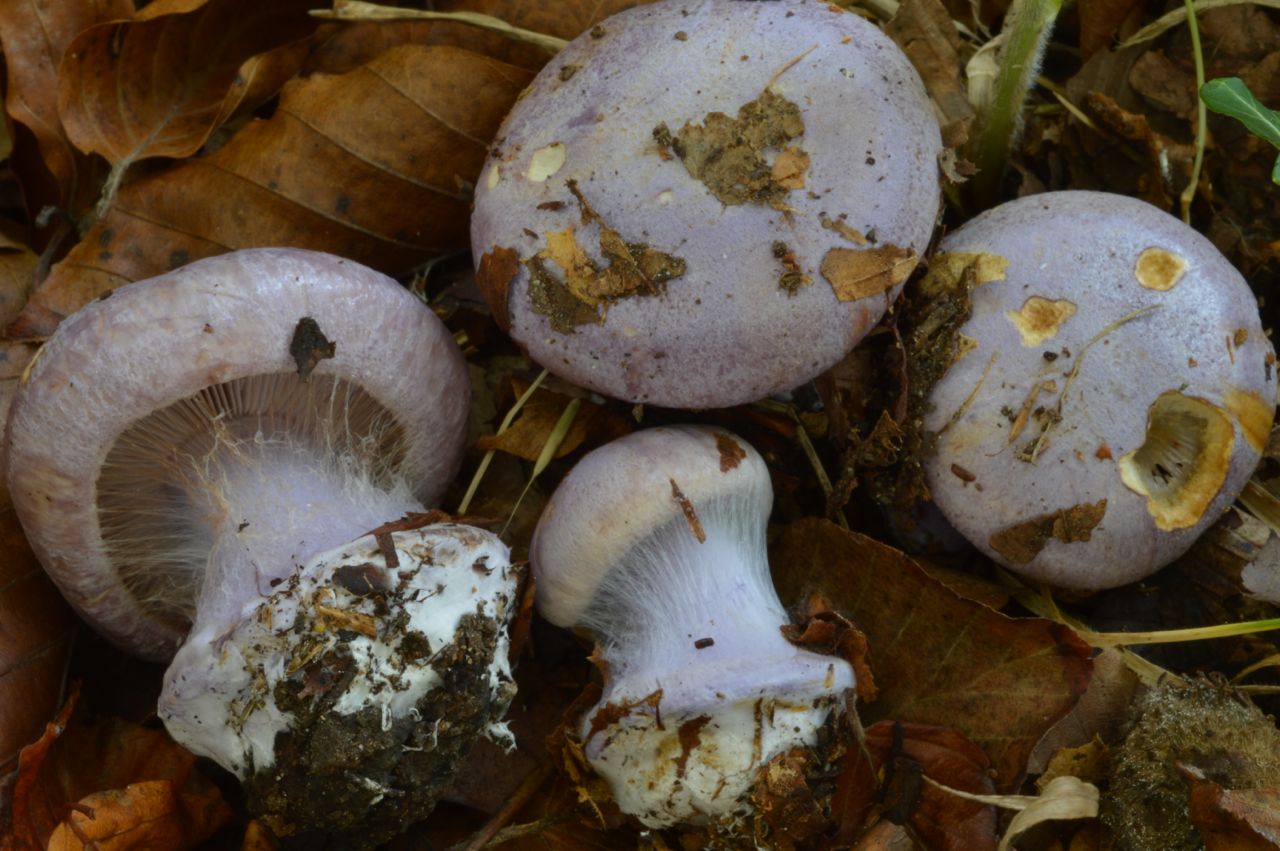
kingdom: Fungi
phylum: Basidiomycota
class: Agaricomycetes
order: Agaricales
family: Cortinariaceae
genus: Calonarius
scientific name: Calonarius sodagnitus
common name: violblå slørhat
